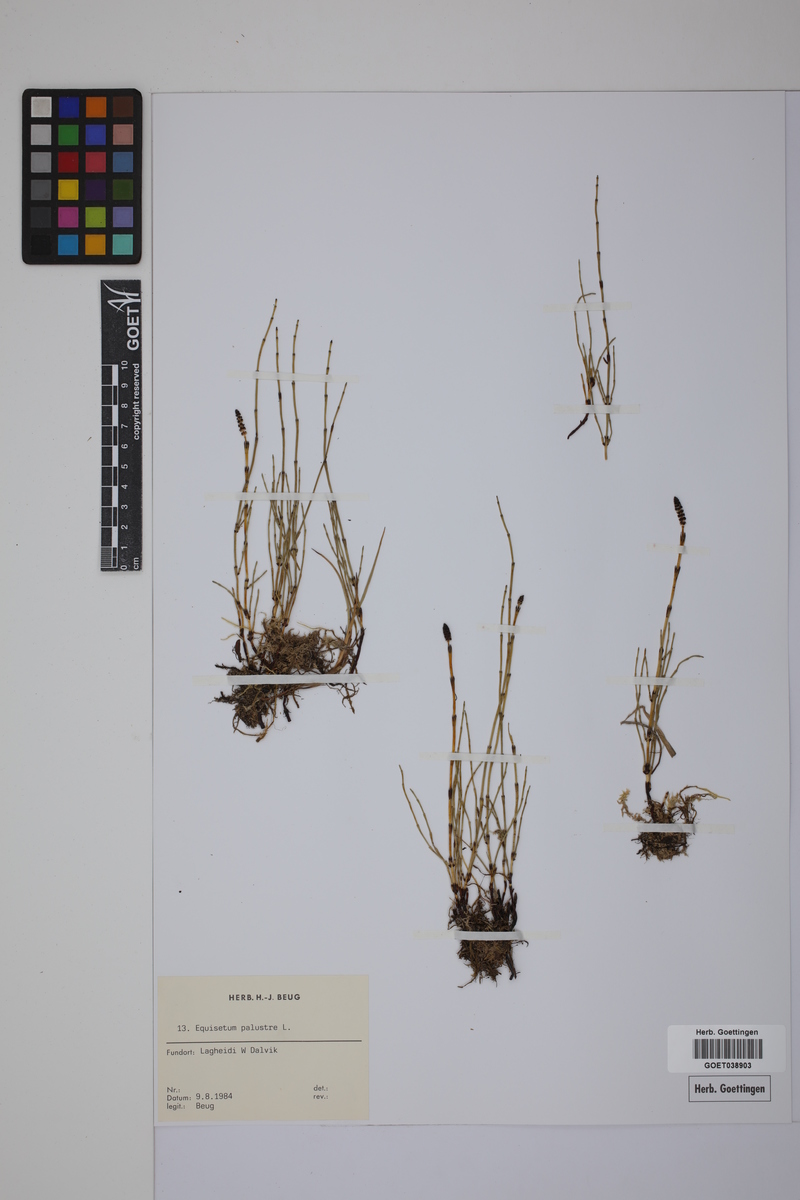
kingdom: Plantae
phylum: Tracheophyta
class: Polypodiopsida
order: Equisetales
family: Equisetaceae
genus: Equisetum
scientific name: Equisetum palustre
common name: Marsh horsetail
